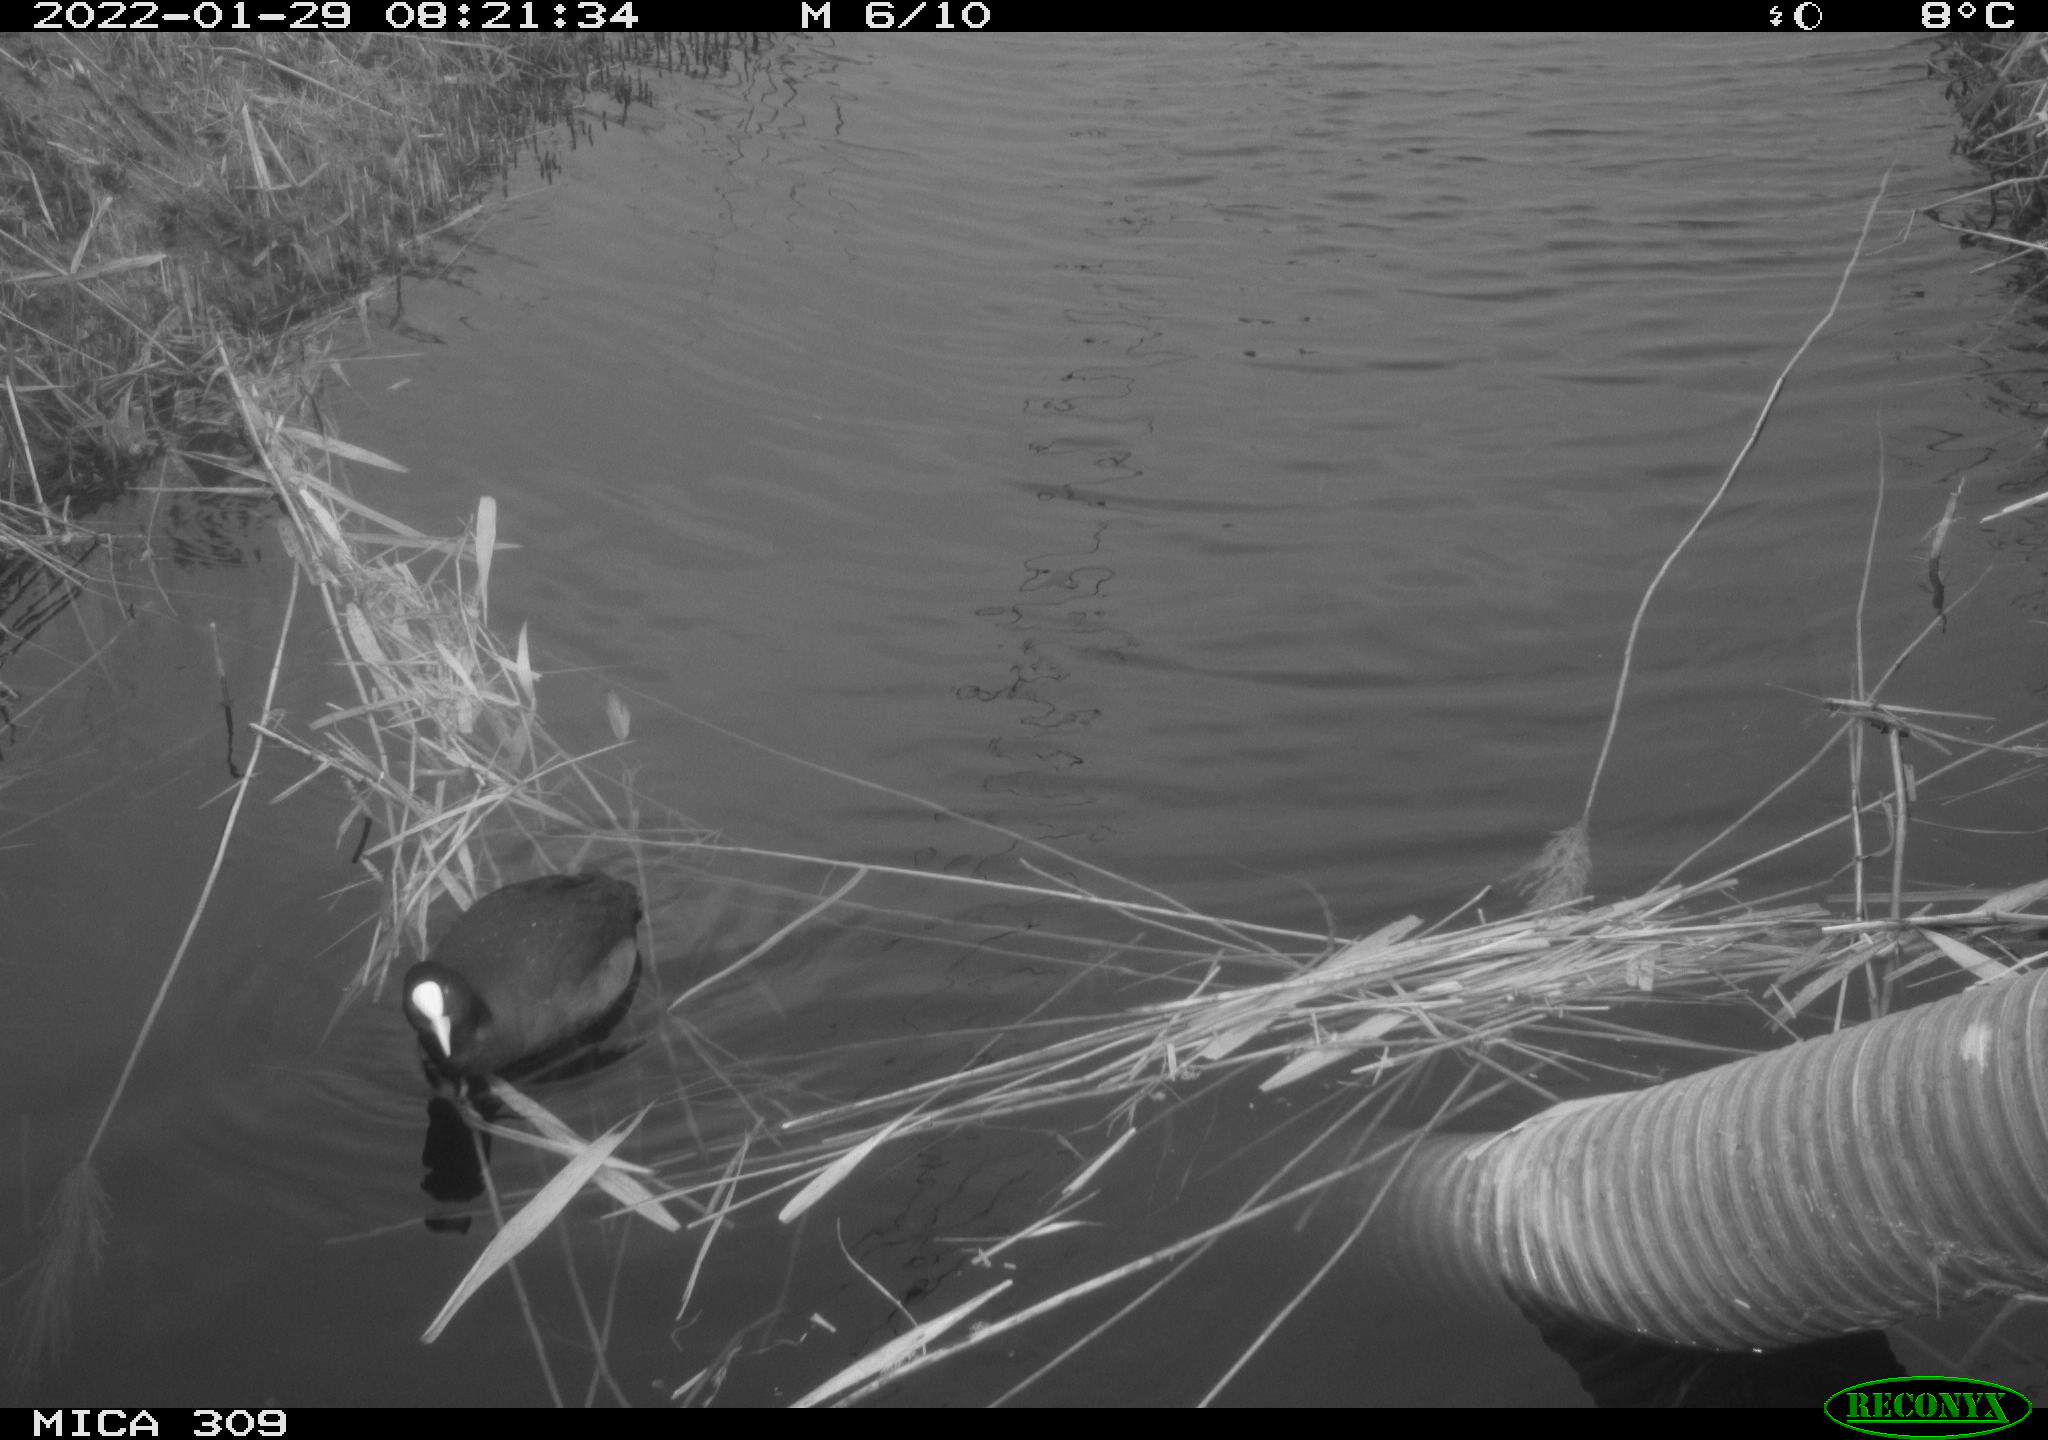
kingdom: Animalia
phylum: Chordata
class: Aves
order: Gruiformes
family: Rallidae
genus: Fulica
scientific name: Fulica atra
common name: Eurasian coot
